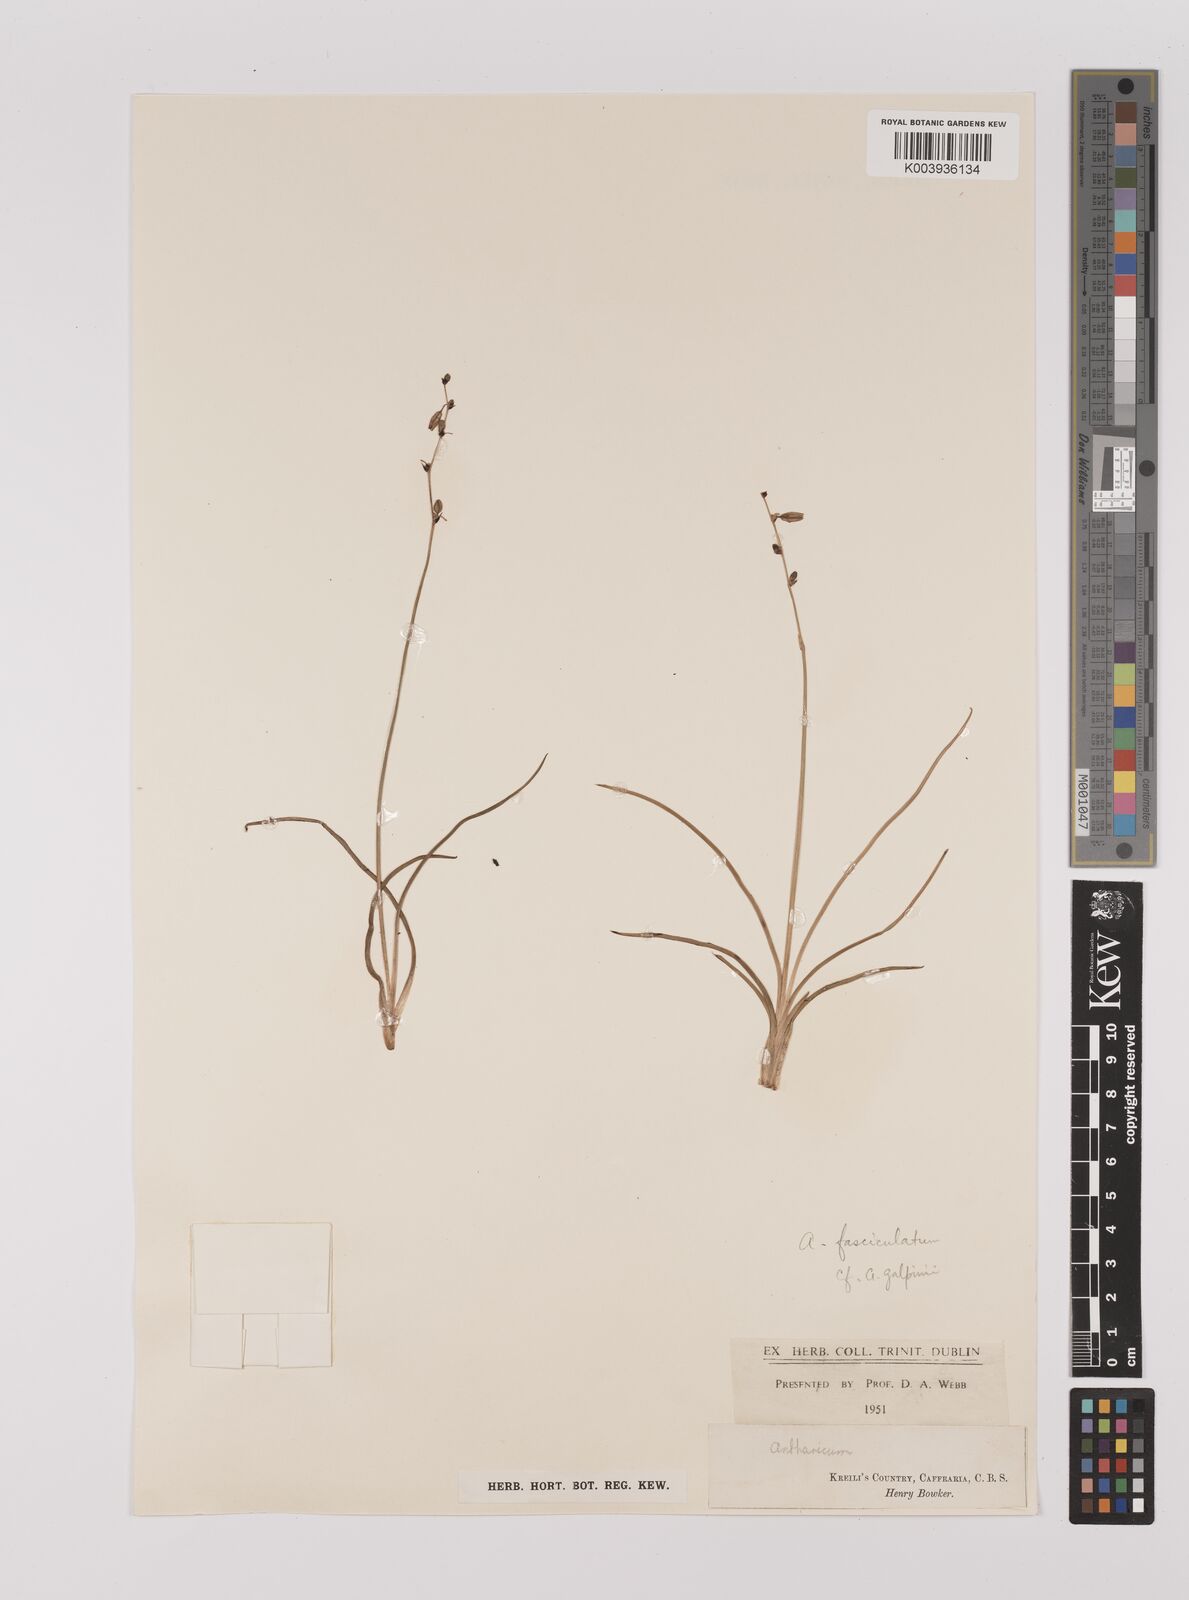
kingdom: Plantae
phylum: Tracheophyta
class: Liliopsida
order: Asparagales
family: Asparagaceae
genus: Chlorophytum
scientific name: Chlorophytum
